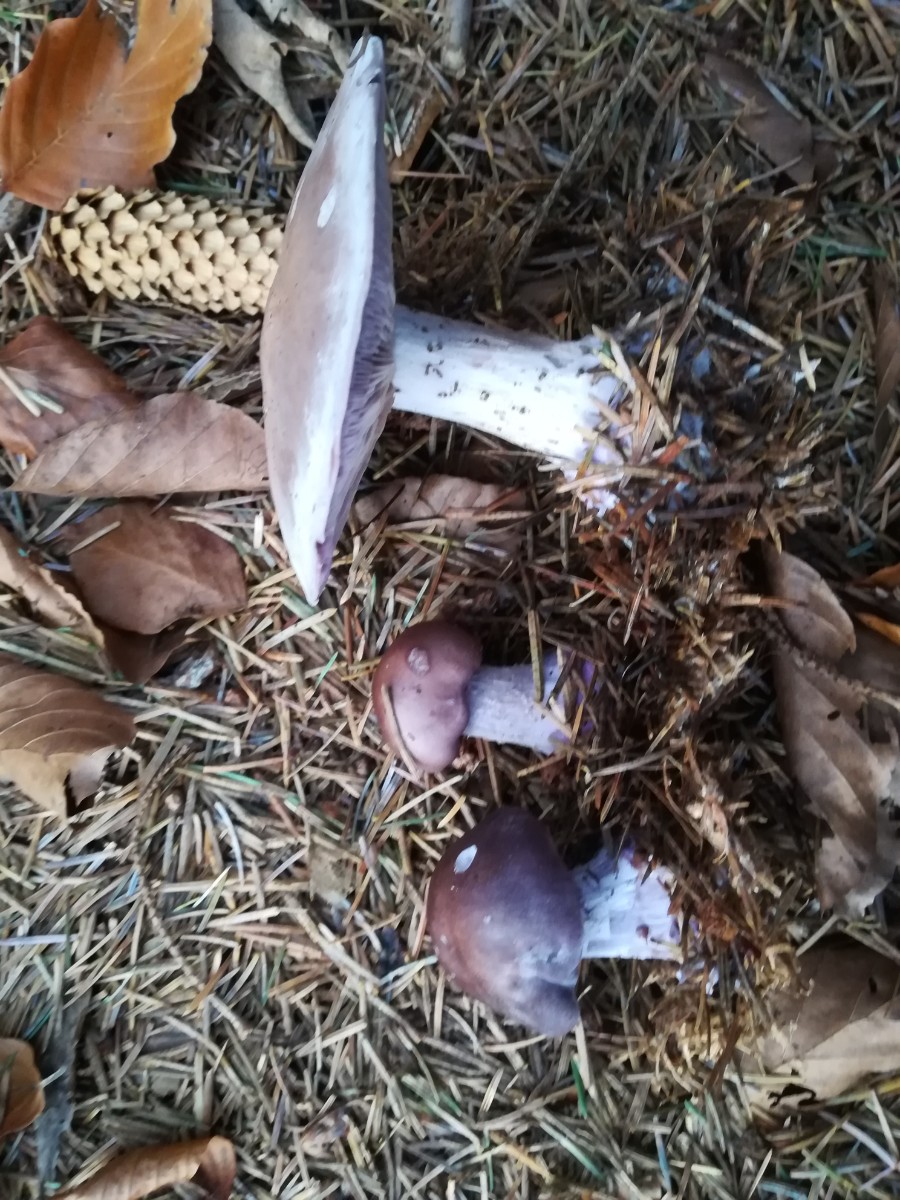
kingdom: Fungi
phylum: Basidiomycota
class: Agaricomycetes
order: Agaricales
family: Tricholomataceae
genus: Lepista
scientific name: Lepista nuda
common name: violet hekseringshat
